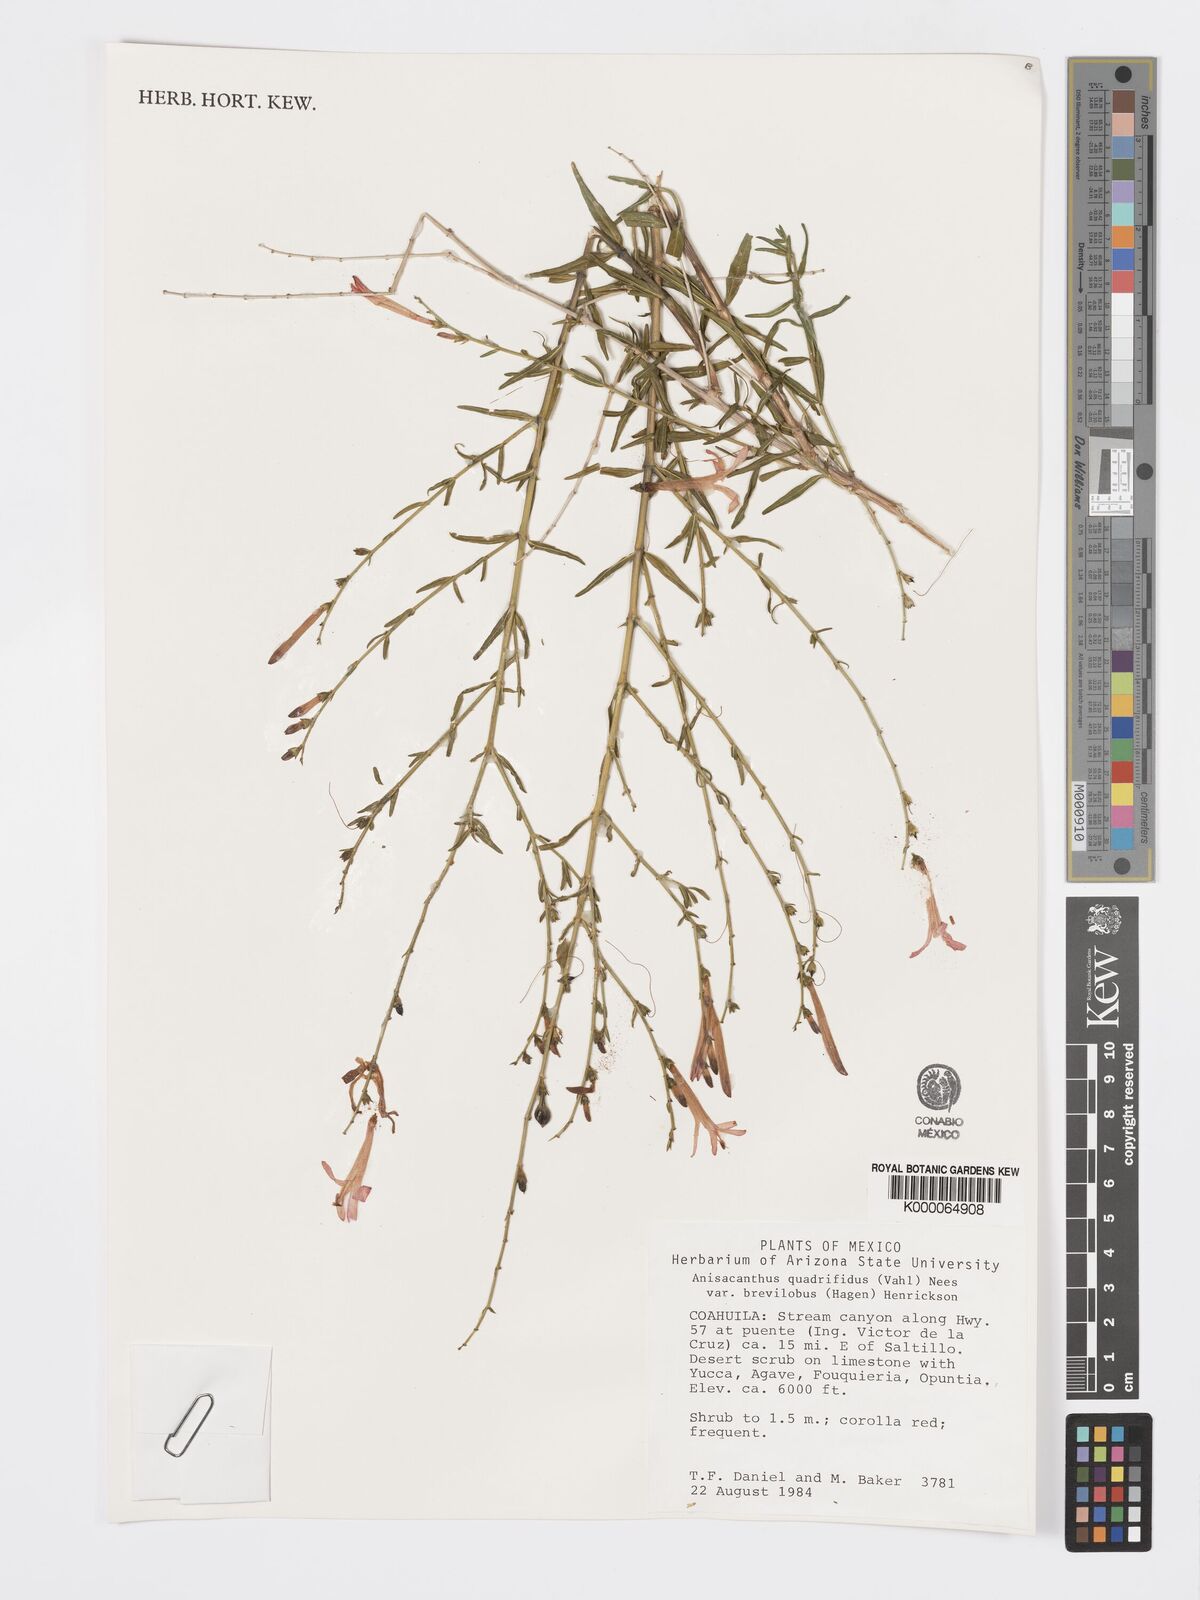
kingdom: Plantae
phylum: Tracheophyta
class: Magnoliopsida
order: Lamiales
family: Acanthaceae
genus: Anisacanthus
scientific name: Anisacanthus quadrifidus
